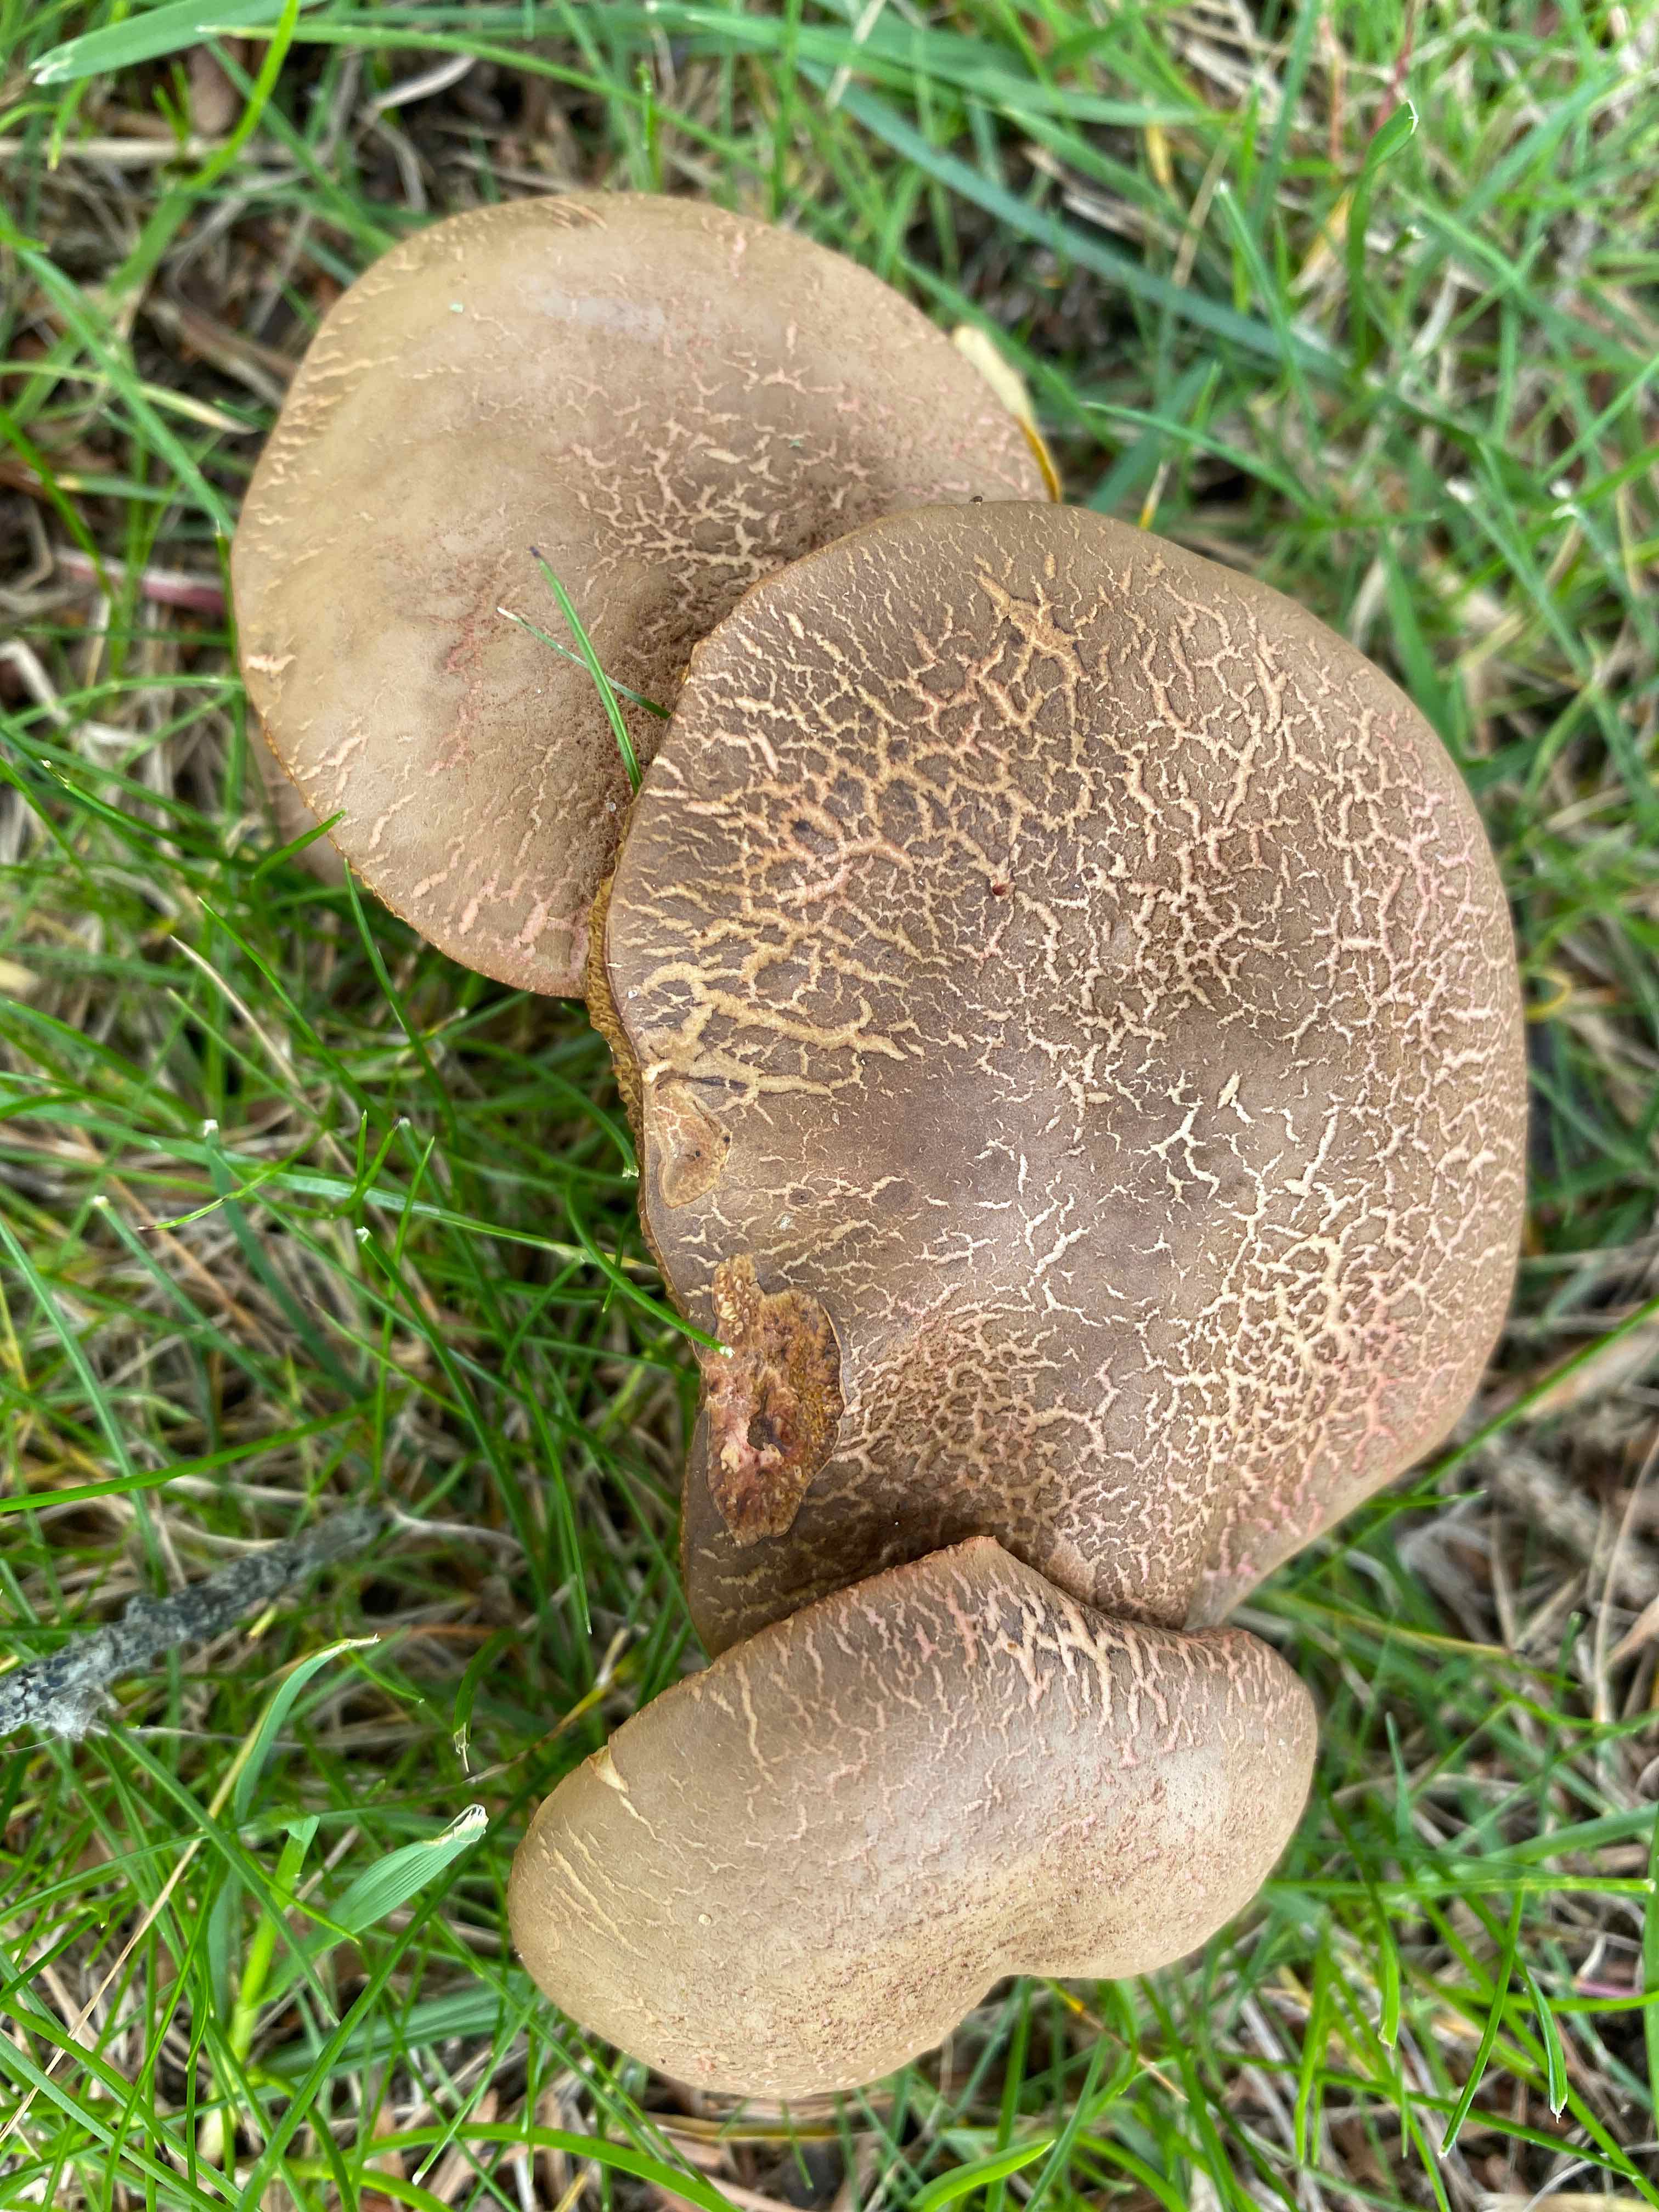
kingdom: Fungi
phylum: Basidiomycota
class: Agaricomycetes
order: Boletales
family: Boletaceae
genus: Xerocomellus
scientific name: Xerocomellus cisalpinus
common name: finsprukken rørhat
